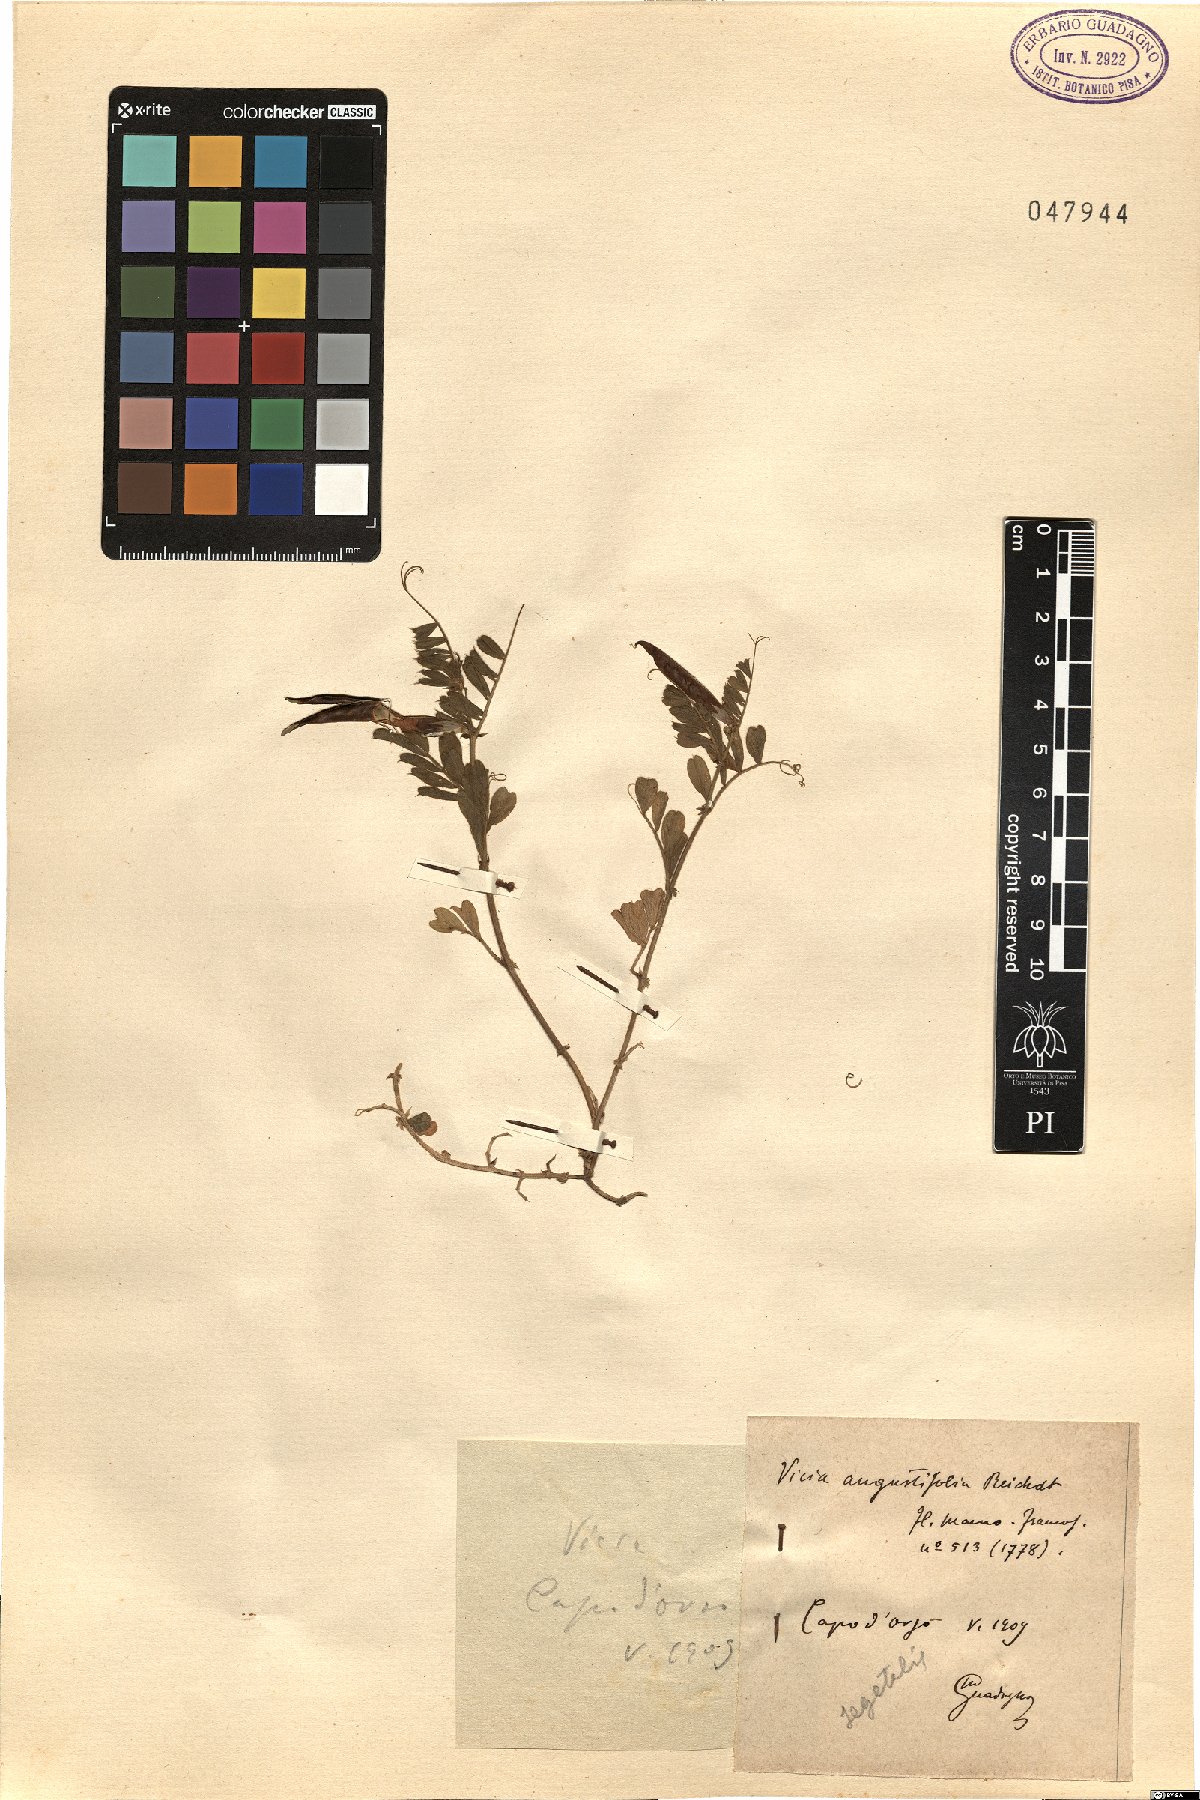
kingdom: Plantae
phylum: Tracheophyta
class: Magnoliopsida
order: Fabales
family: Fabaceae
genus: Vicia
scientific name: Vicia sativa
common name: Garden vetch
